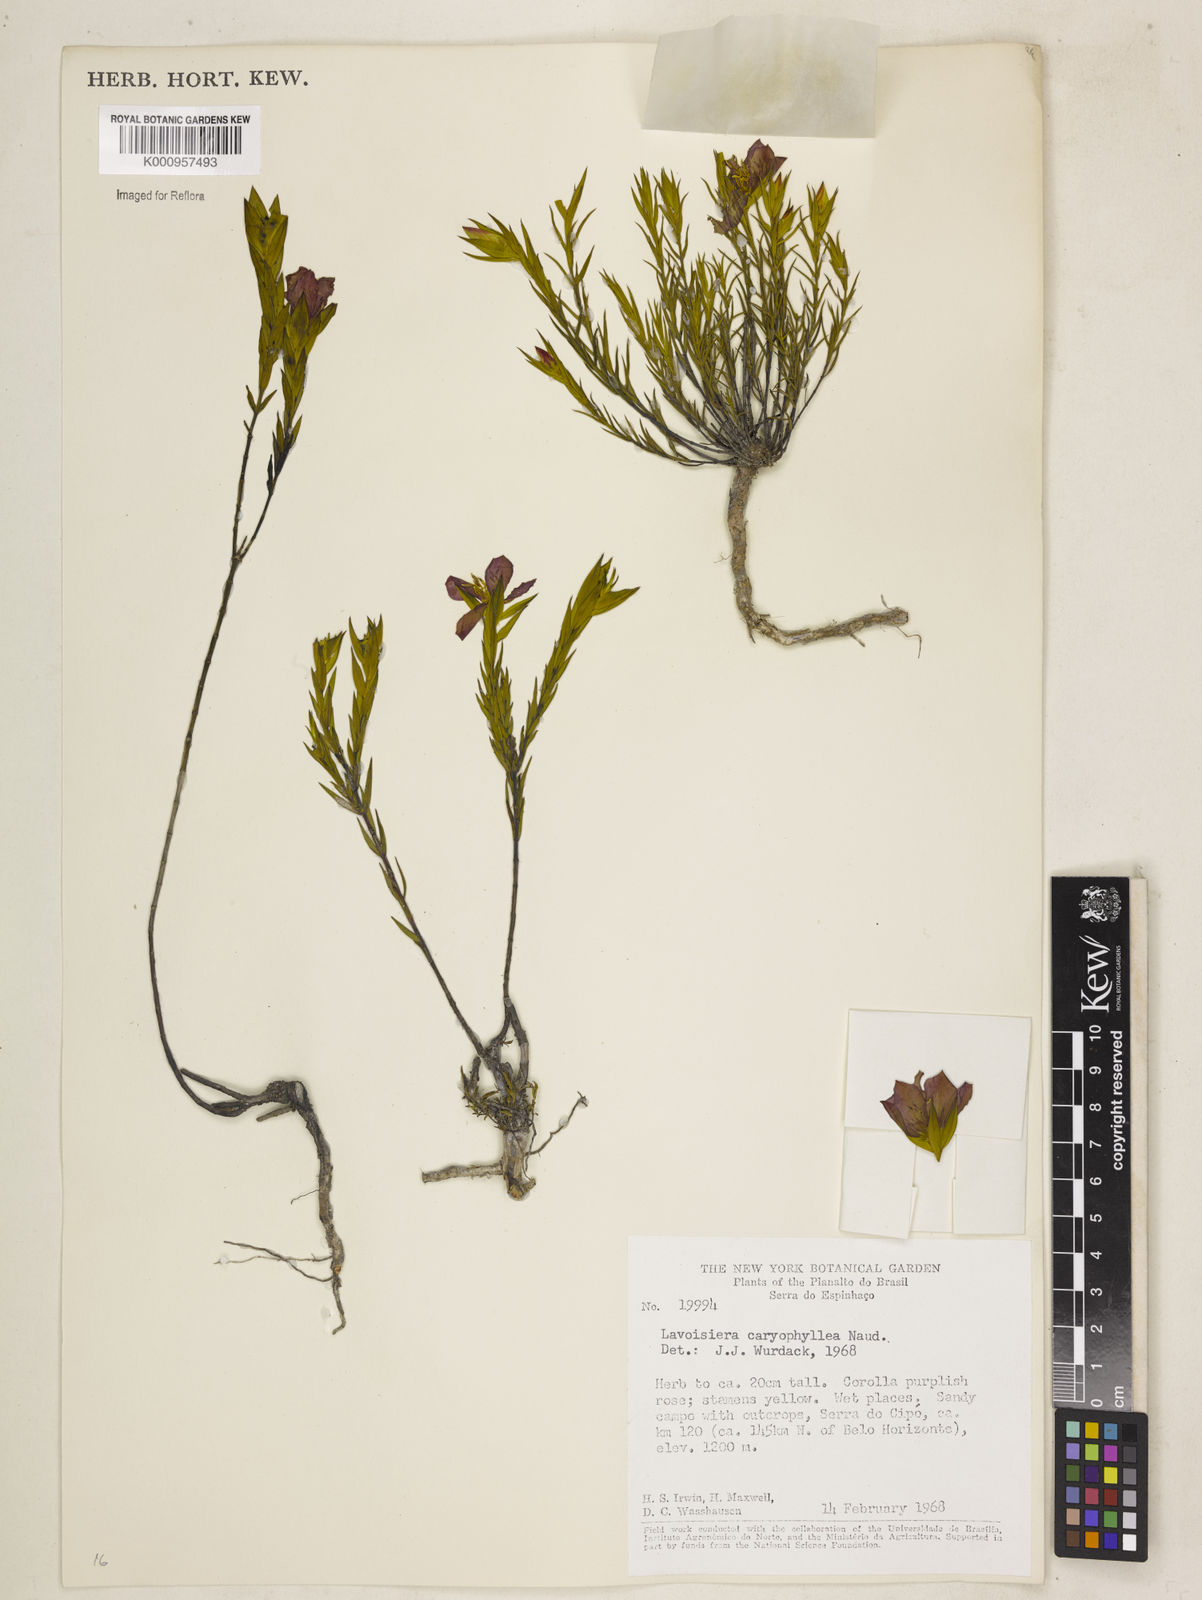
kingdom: Plantae
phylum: Tracheophyta
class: Magnoliopsida
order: Myrtales
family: Melastomataceae
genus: Microlicia
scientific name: Microlicia caryophyllea
